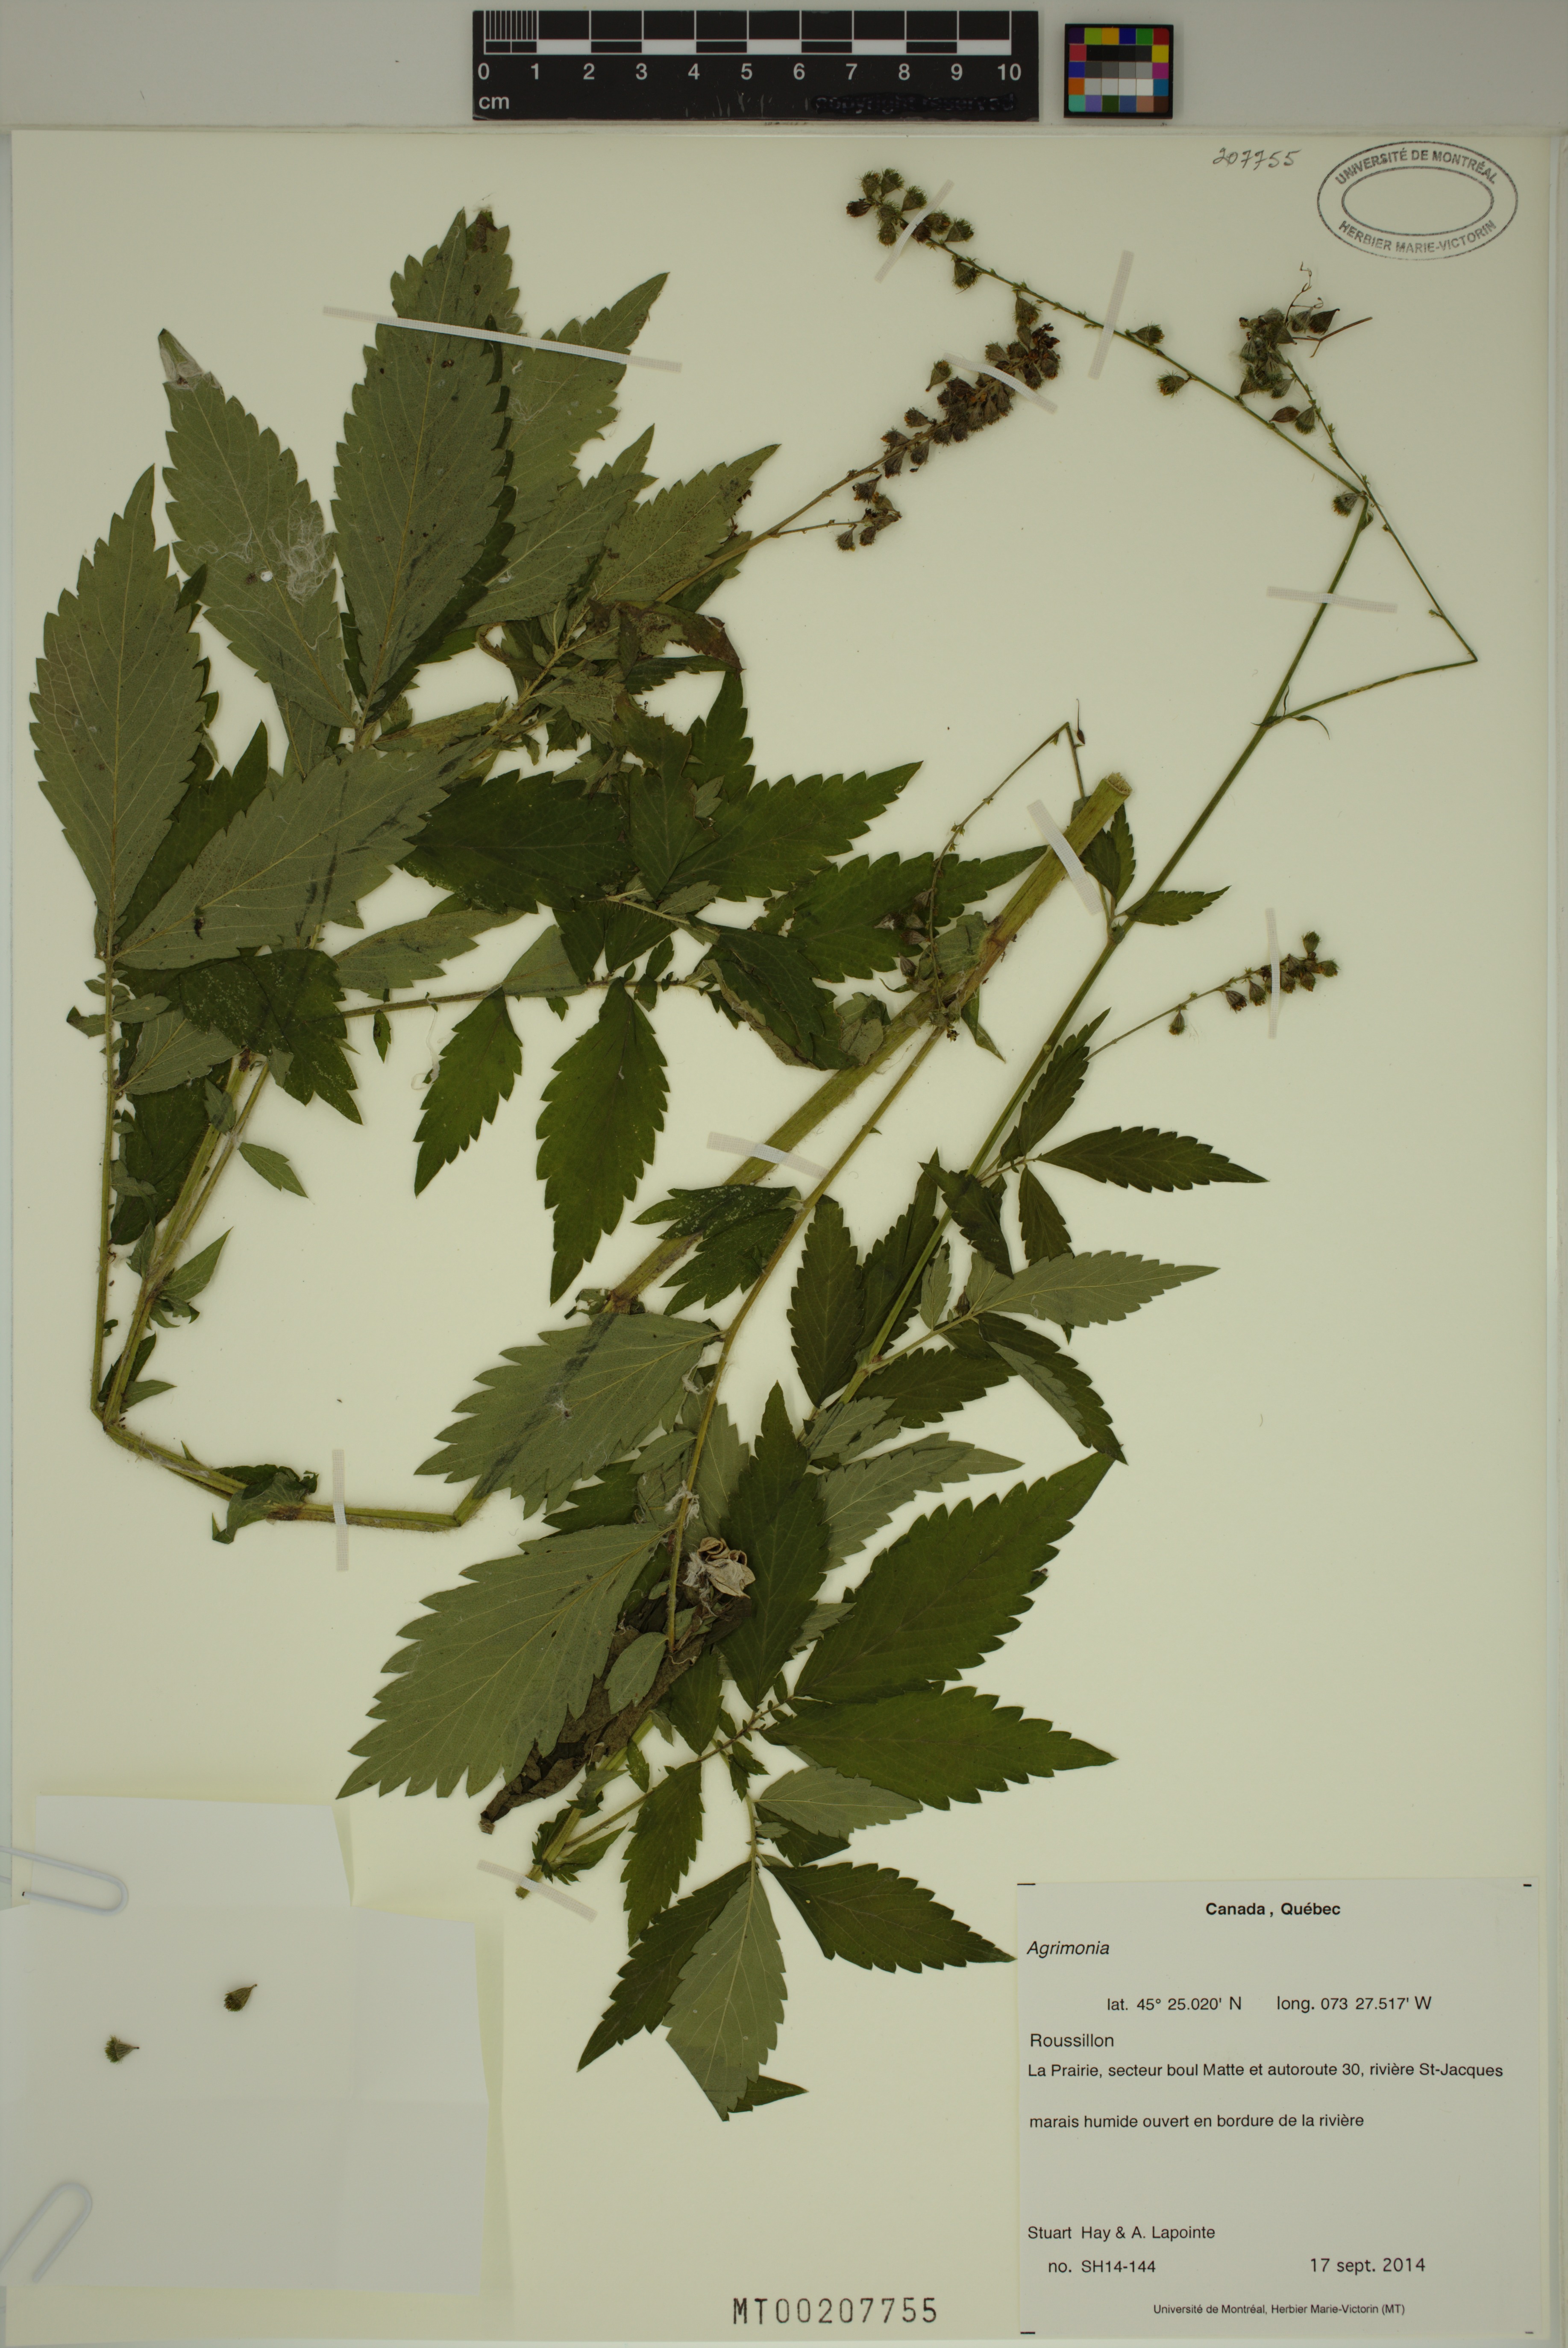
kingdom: Plantae
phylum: Tracheophyta
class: Magnoliopsida
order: Rosales
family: Rosaceae
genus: Agrimonia
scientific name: Agrimonia
